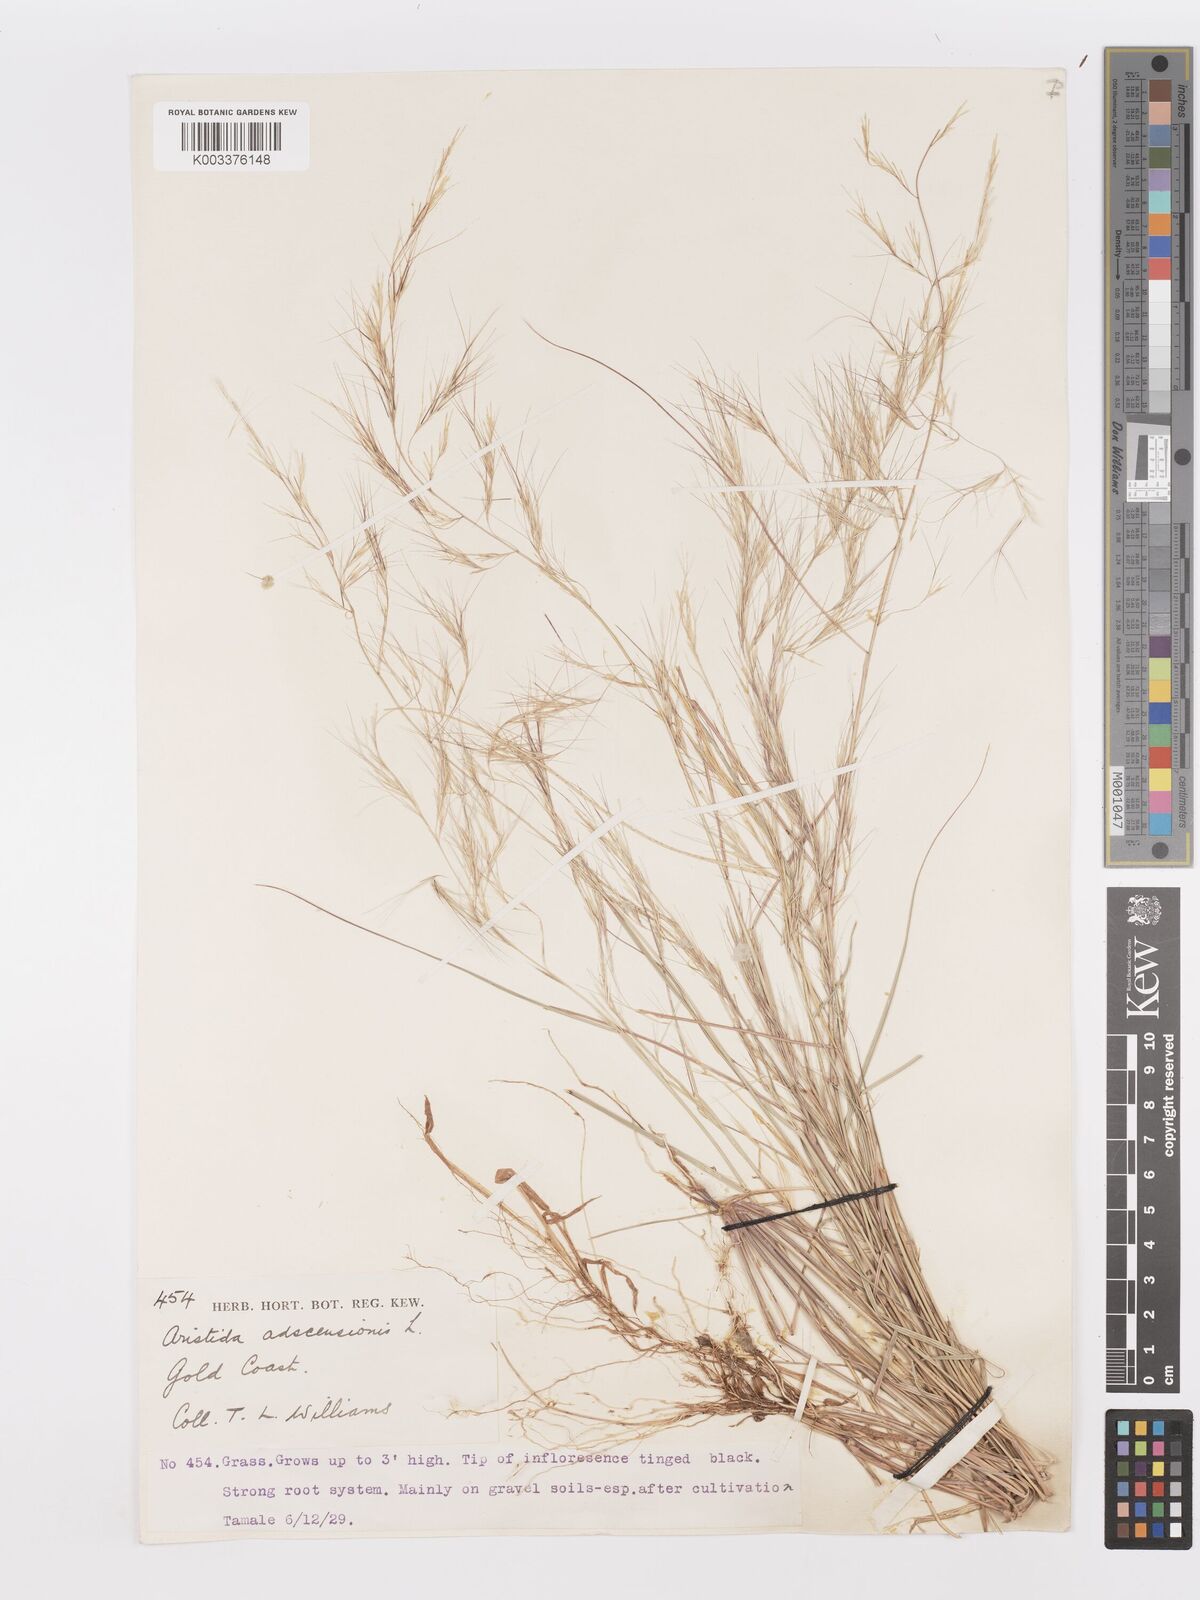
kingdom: Plantae
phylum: Tracheophyta
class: Liliopsida
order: Poales
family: Poaceae
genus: Aristida
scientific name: Aristida adscensionis
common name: Sixweeks threeawn
